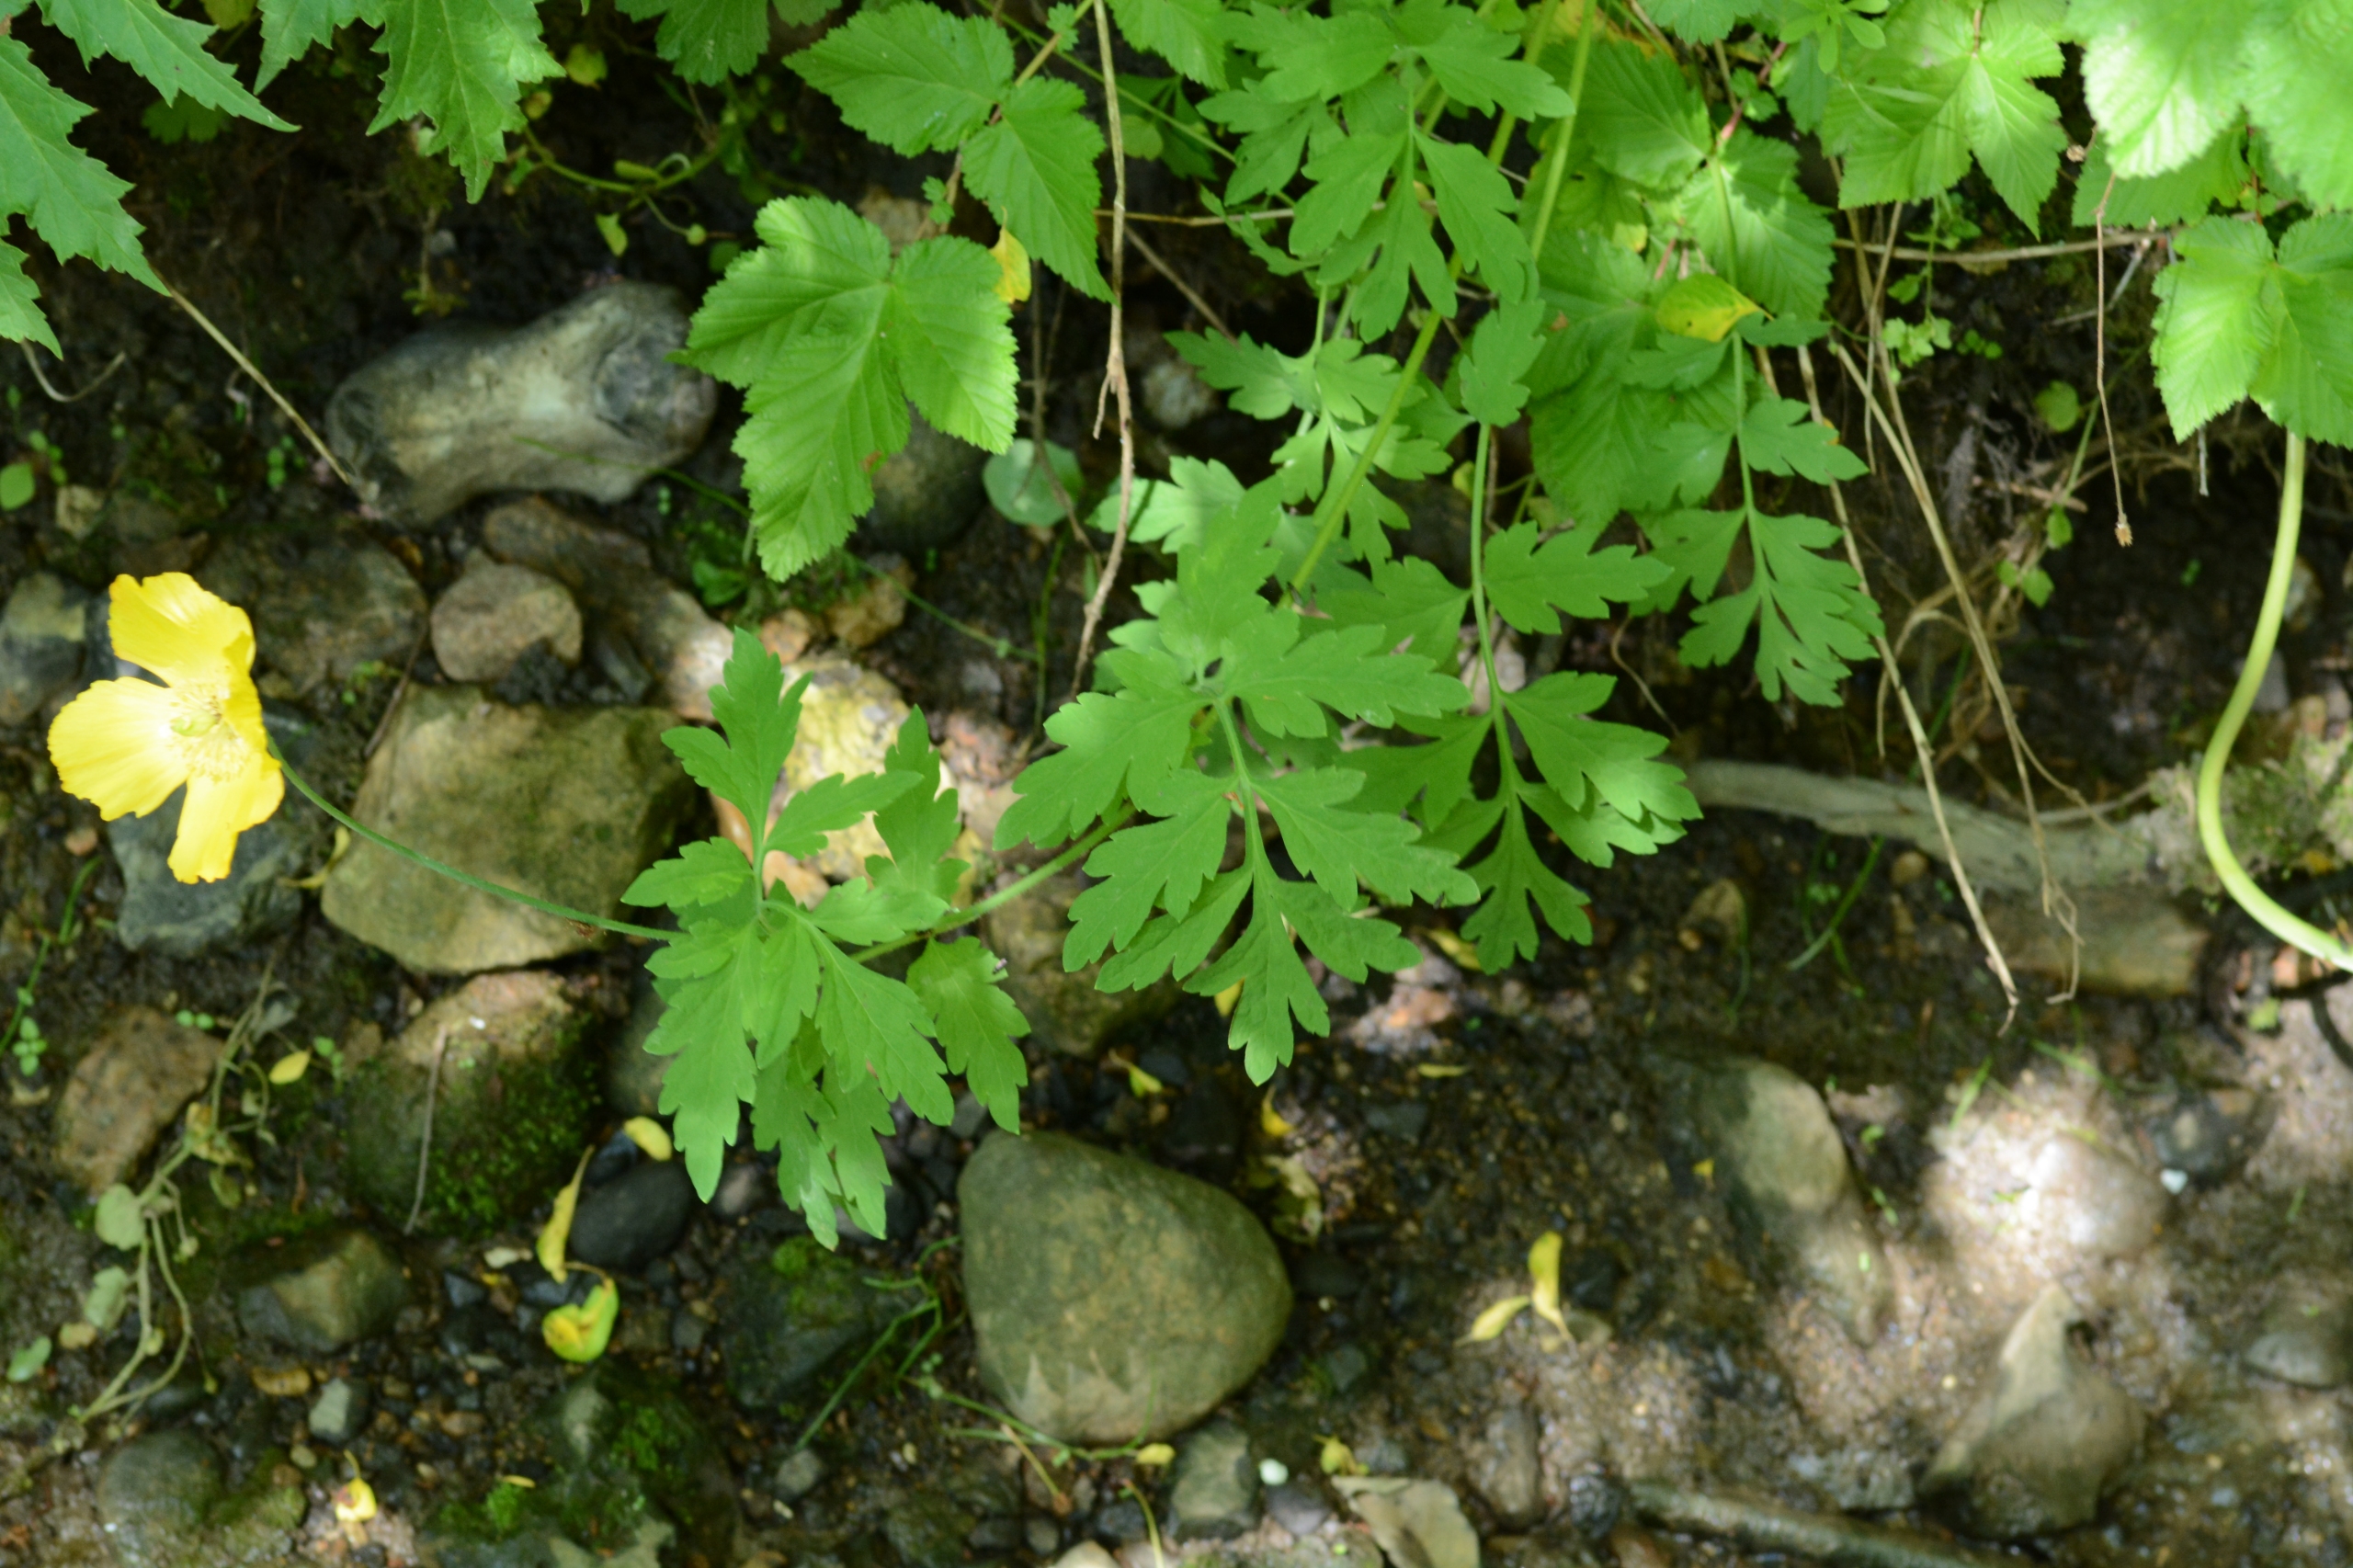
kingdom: Plantae
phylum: Tracheophyta
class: Magnoliopsida
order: Ranunculales
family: Papaveraceae
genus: Papaver
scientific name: Papaver cambricum
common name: Skov-valmue
